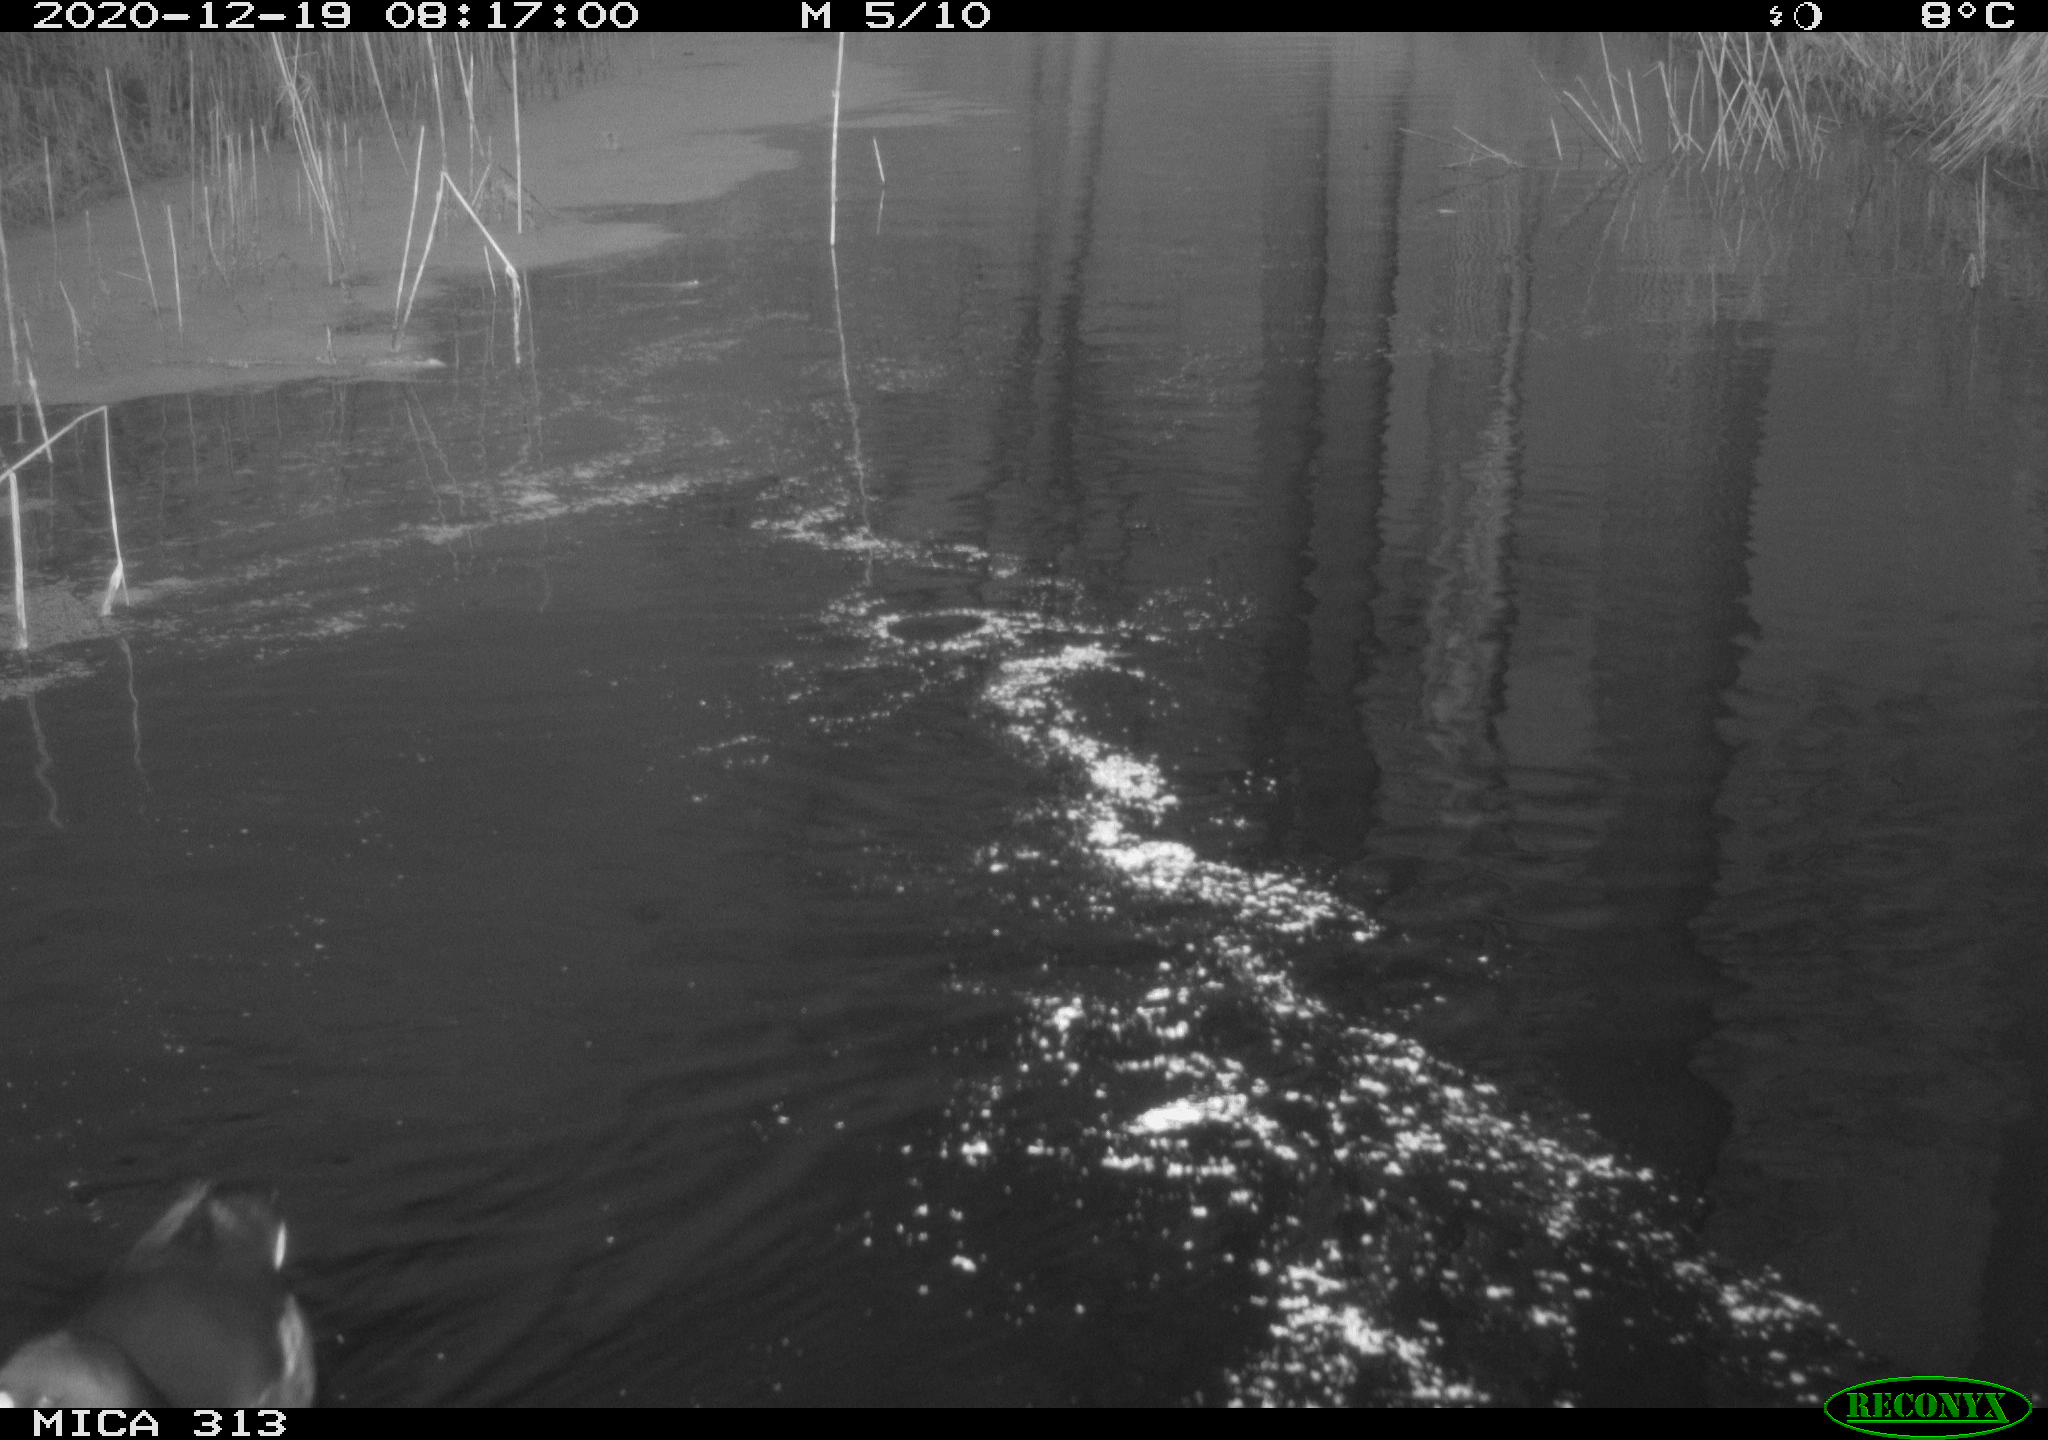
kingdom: Animalia
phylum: Chordata
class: Aves
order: Gruiformes
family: Rallidae
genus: Fulica
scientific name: Fulica atra
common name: Eurasian coot
